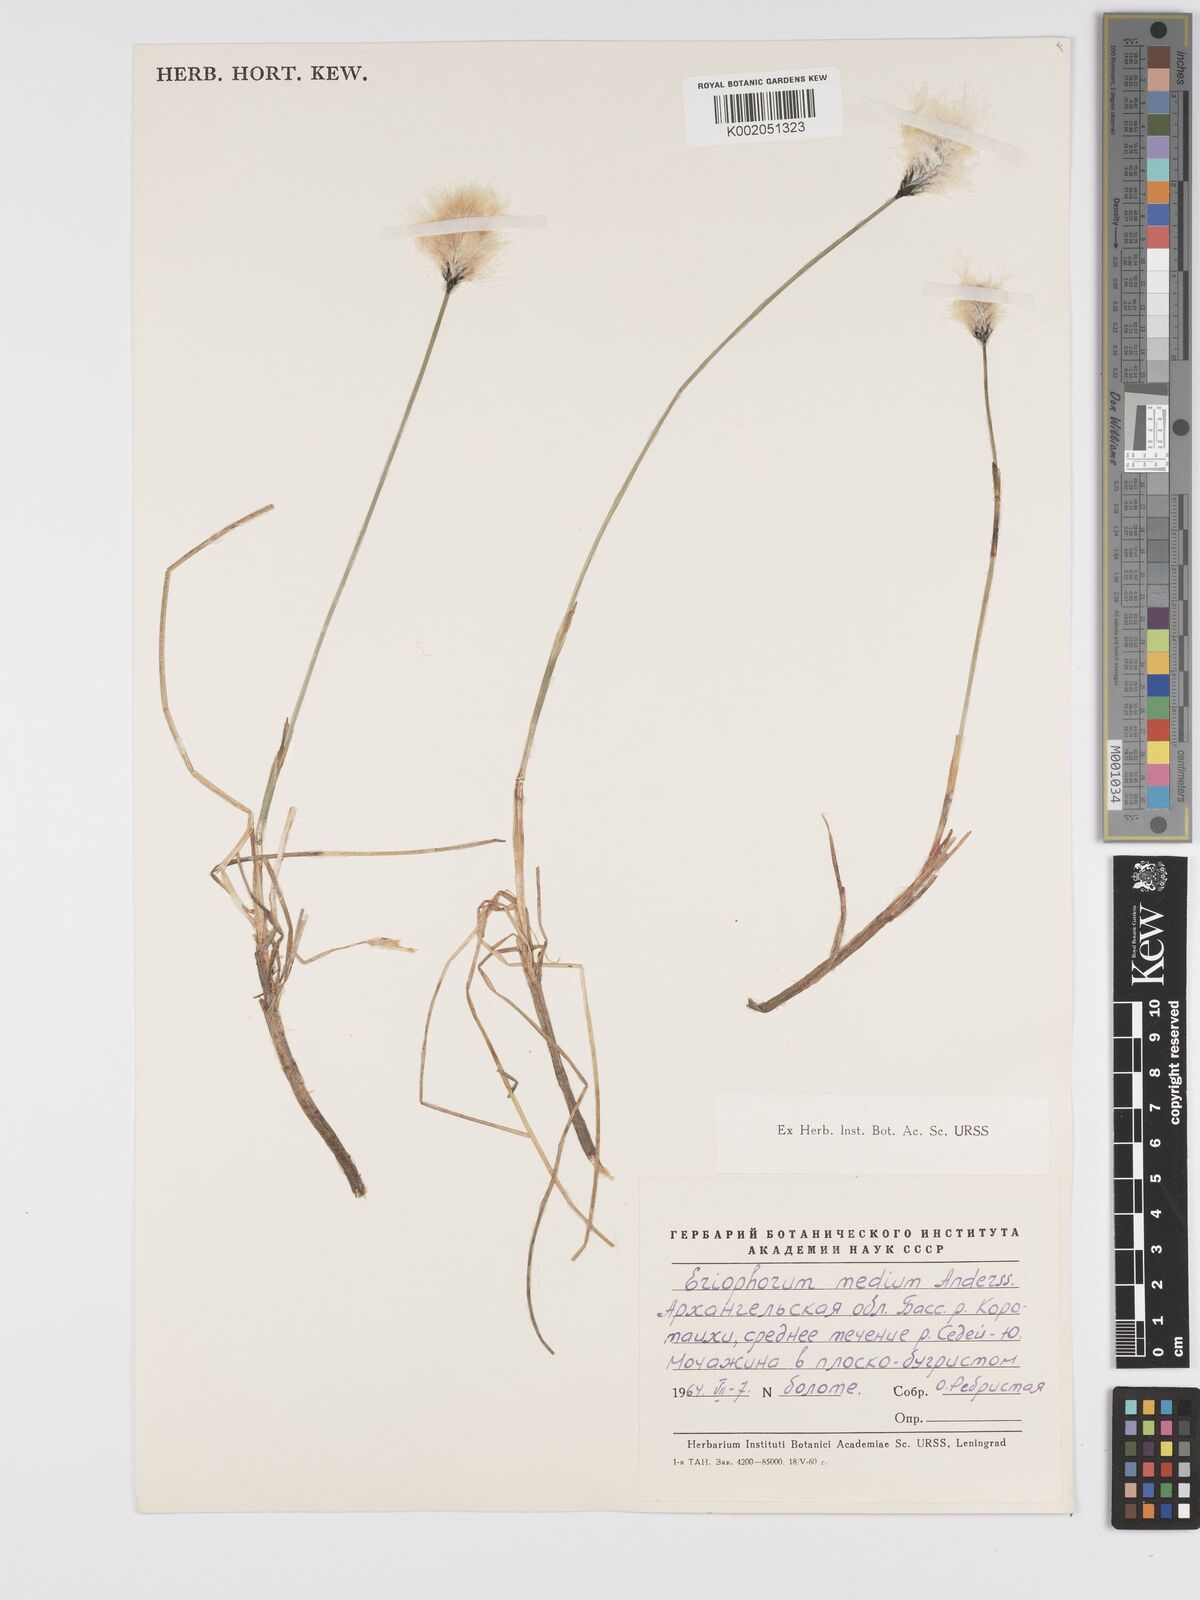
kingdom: Plantae
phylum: Tracheophyta
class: Liliopsida
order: Poales
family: Cyperaceae
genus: Eriophorum
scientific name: Eriophorum medium
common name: Intermediate cottongrass
